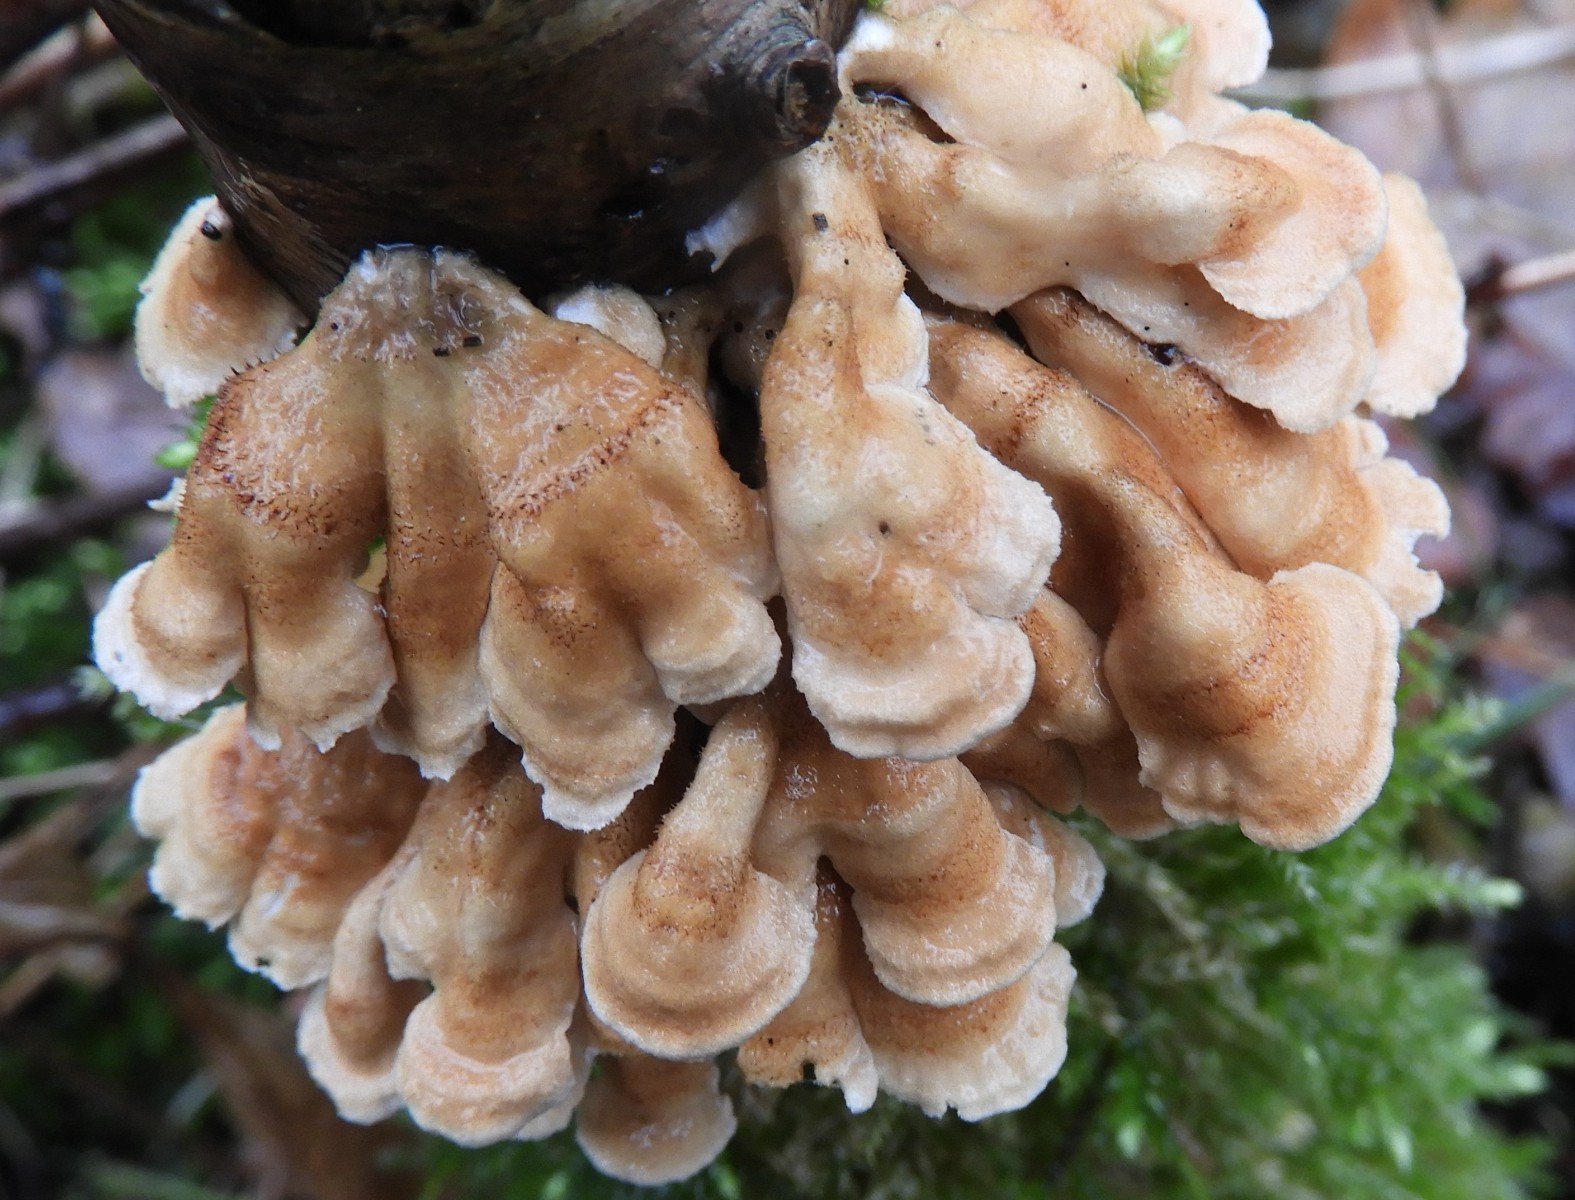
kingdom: Fungi
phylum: Basidiomycota
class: Agaricomycetes
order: Amylocorticiales
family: Amylocorticiaceae
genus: Plicaturopsis
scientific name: Plicaturopsis crispa
